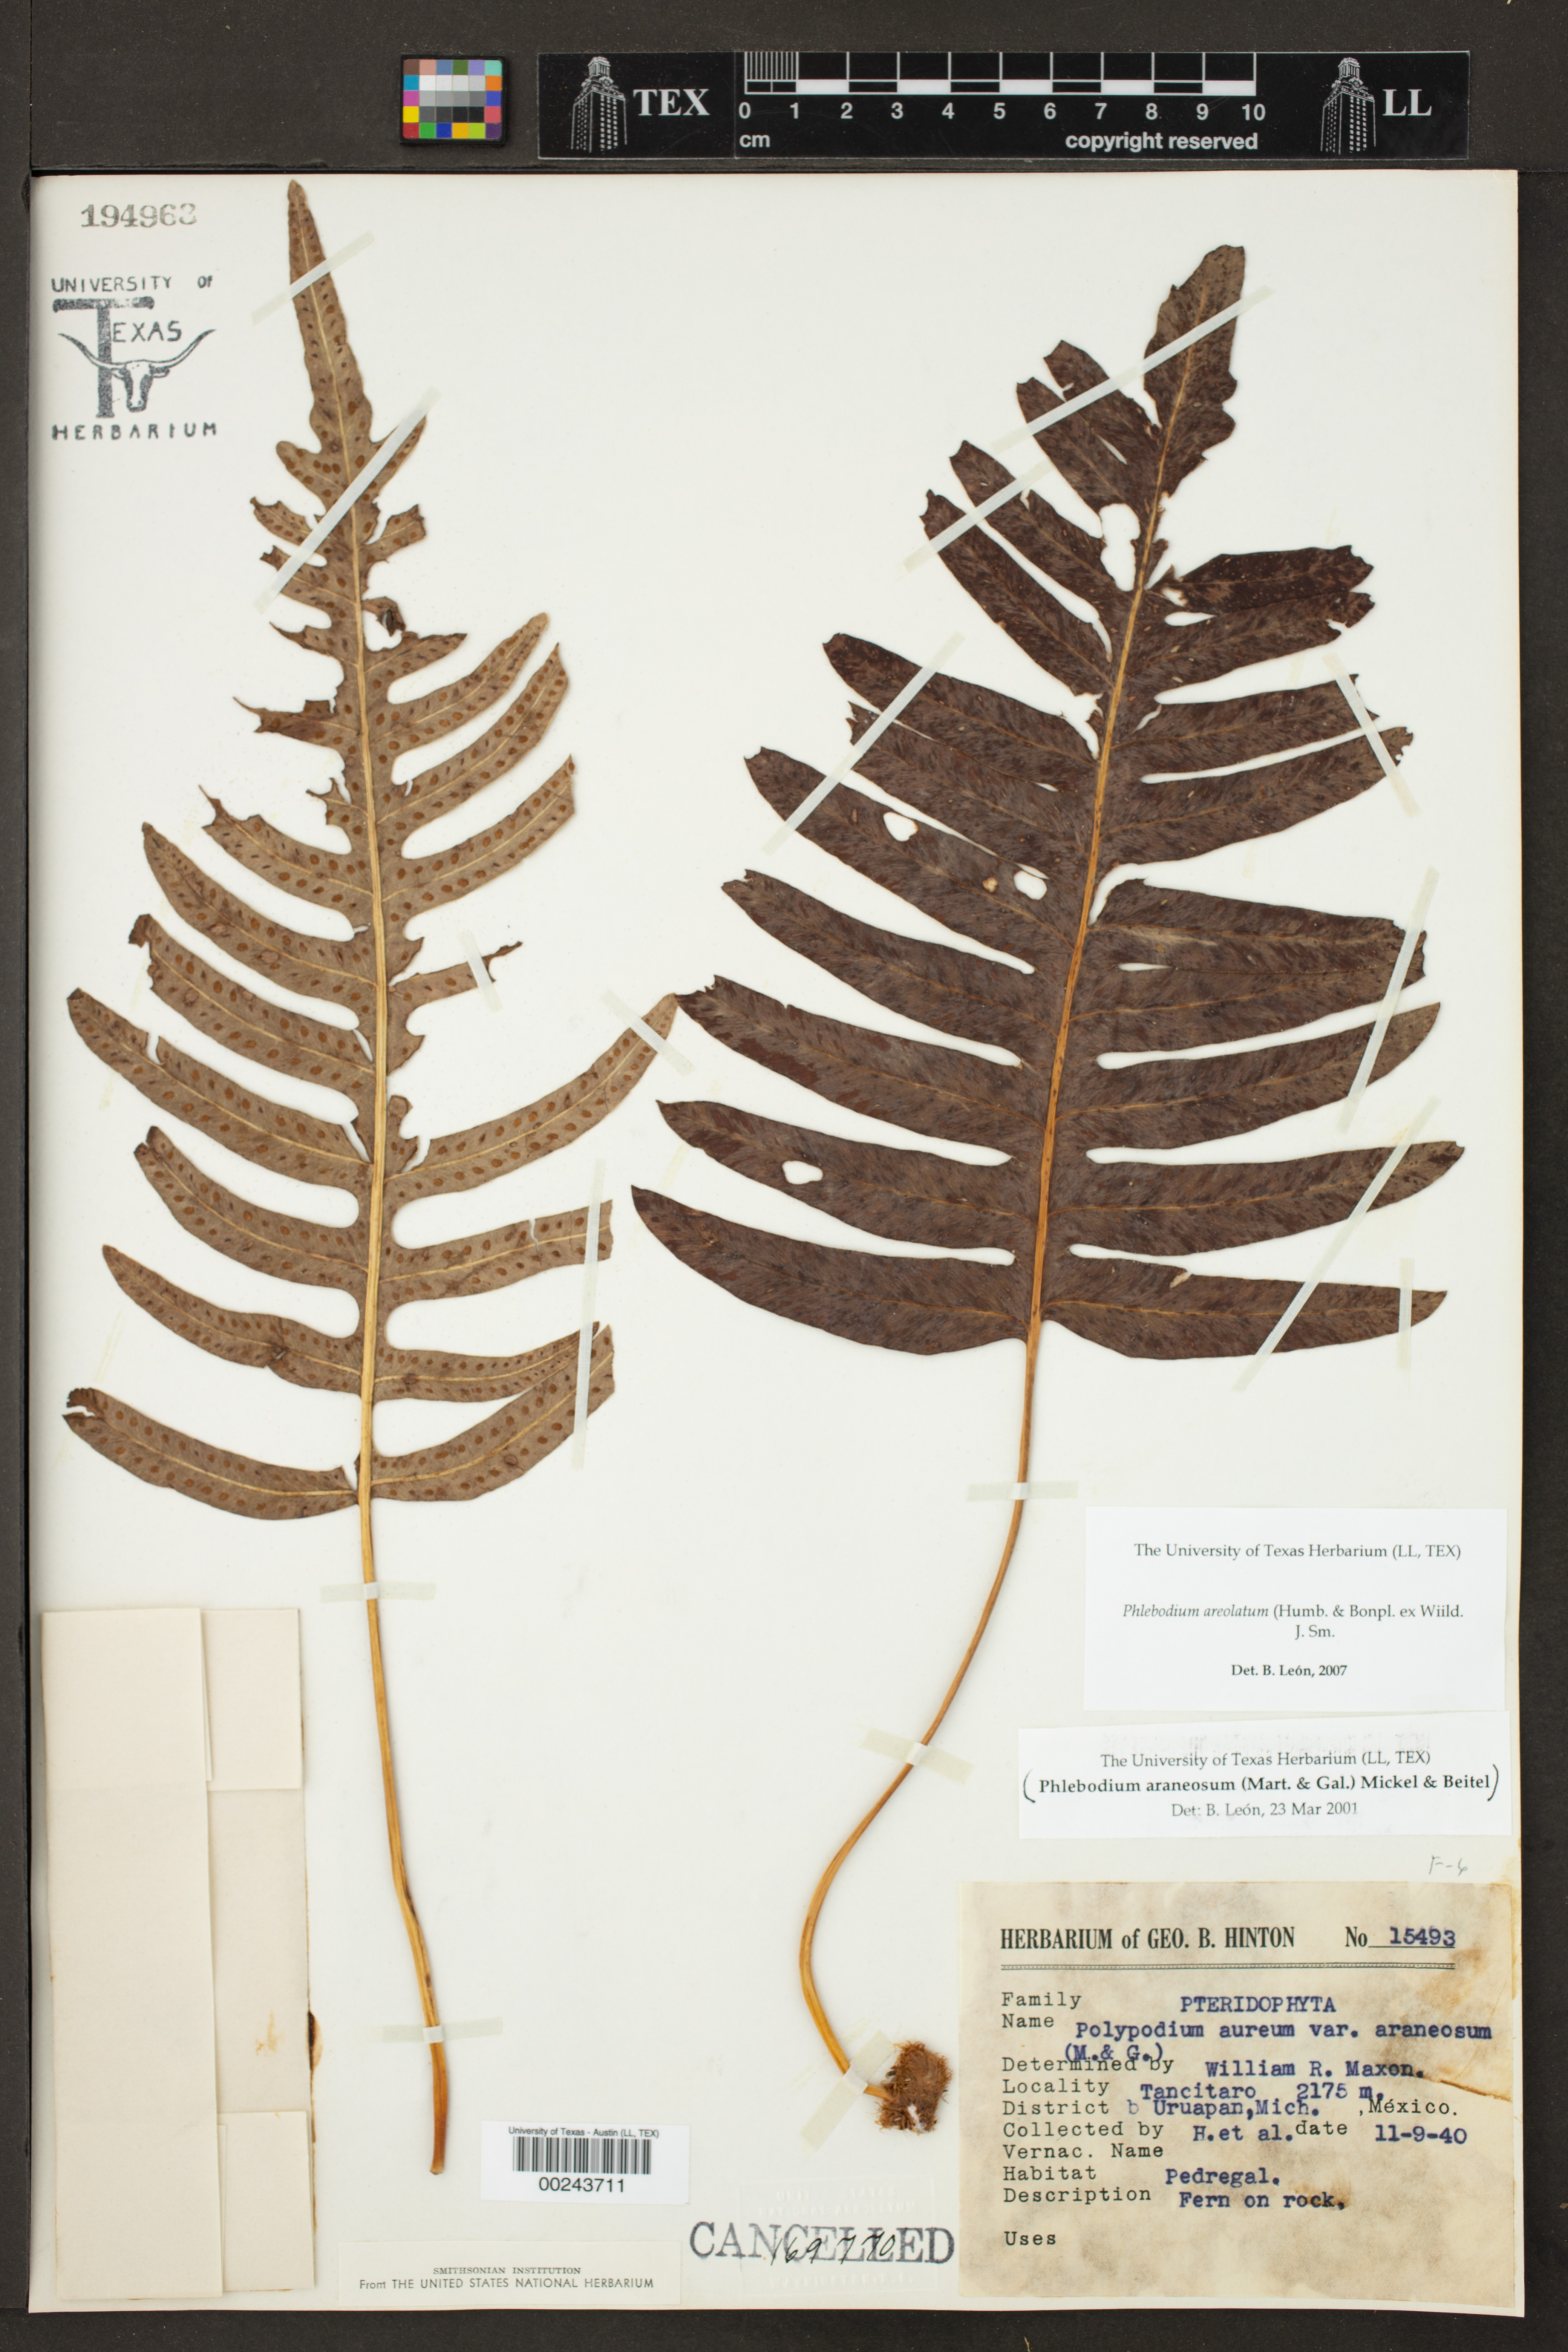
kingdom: Plantae
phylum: Tracheophyta
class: Polypodiopsida
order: Polypodiales
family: Polypodiaceae
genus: Phlebodium
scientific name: Phlebodium pseudoaureum
